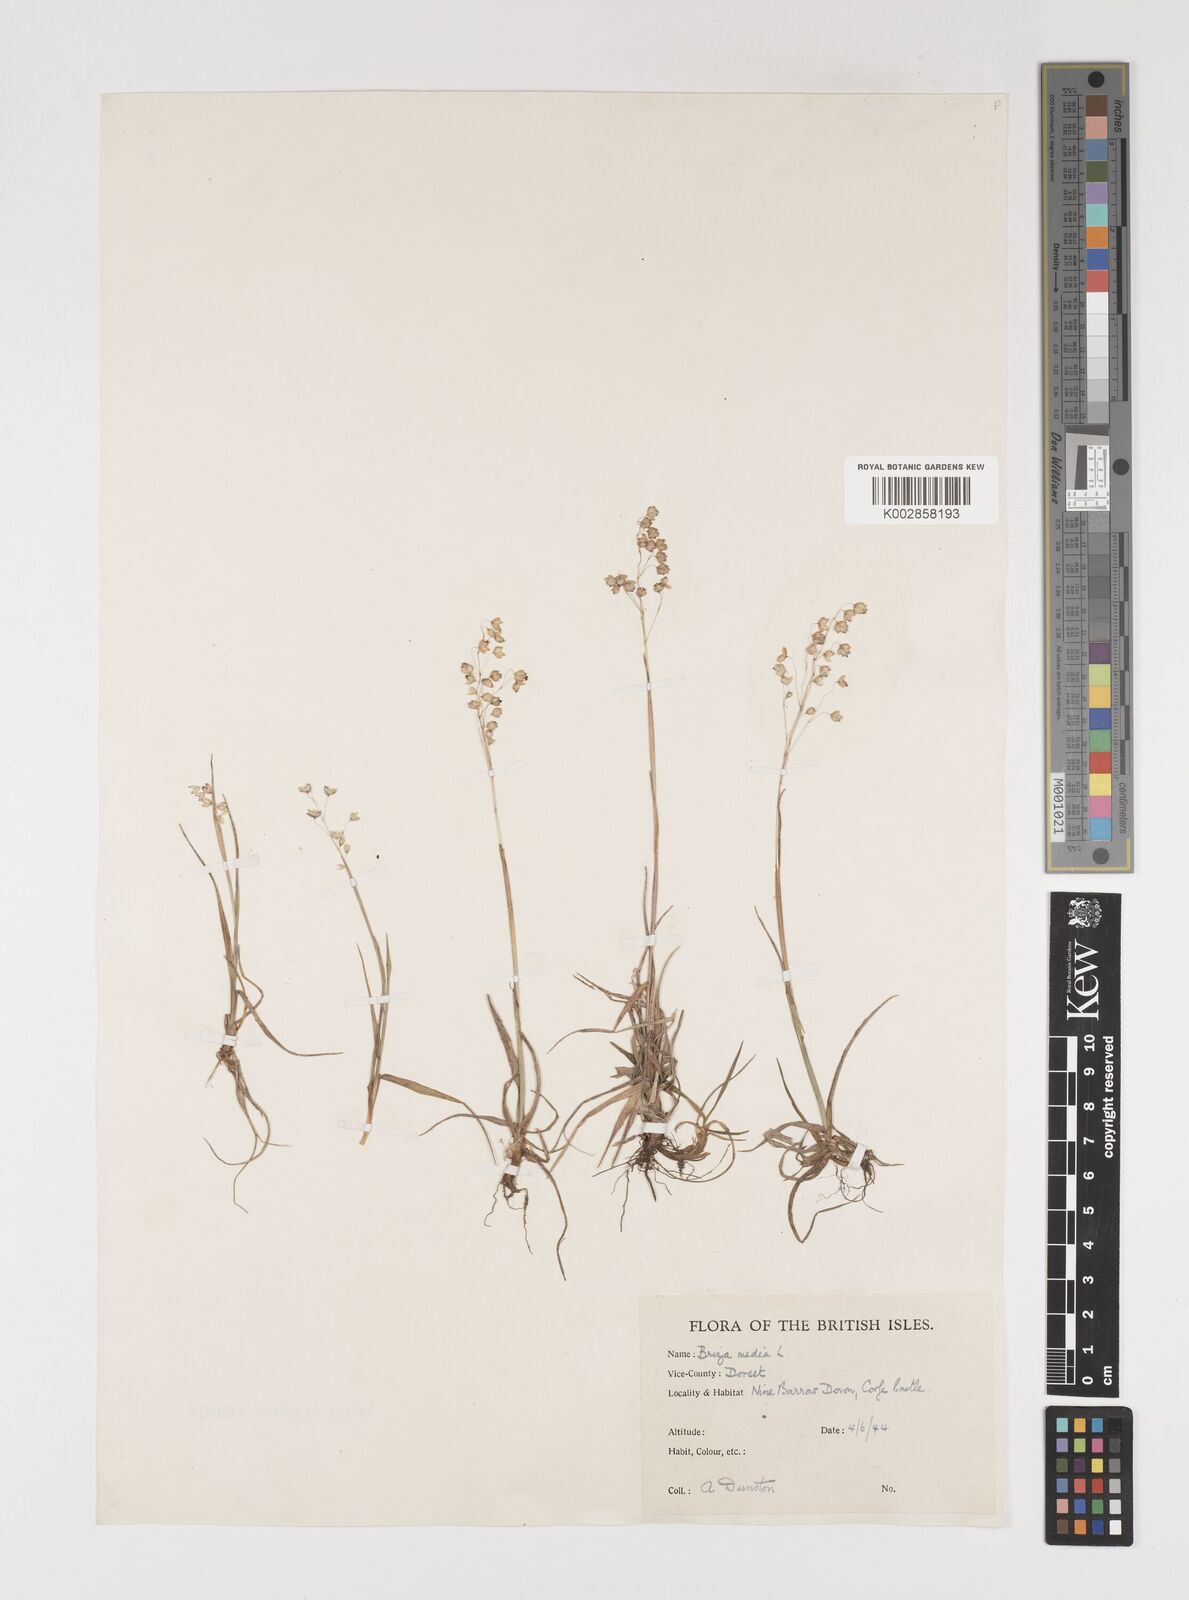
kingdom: Plantae
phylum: Tracheophyta
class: Liliopsida
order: Poales
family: Poaceae
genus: Briza
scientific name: Briza media
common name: Quaking grass
